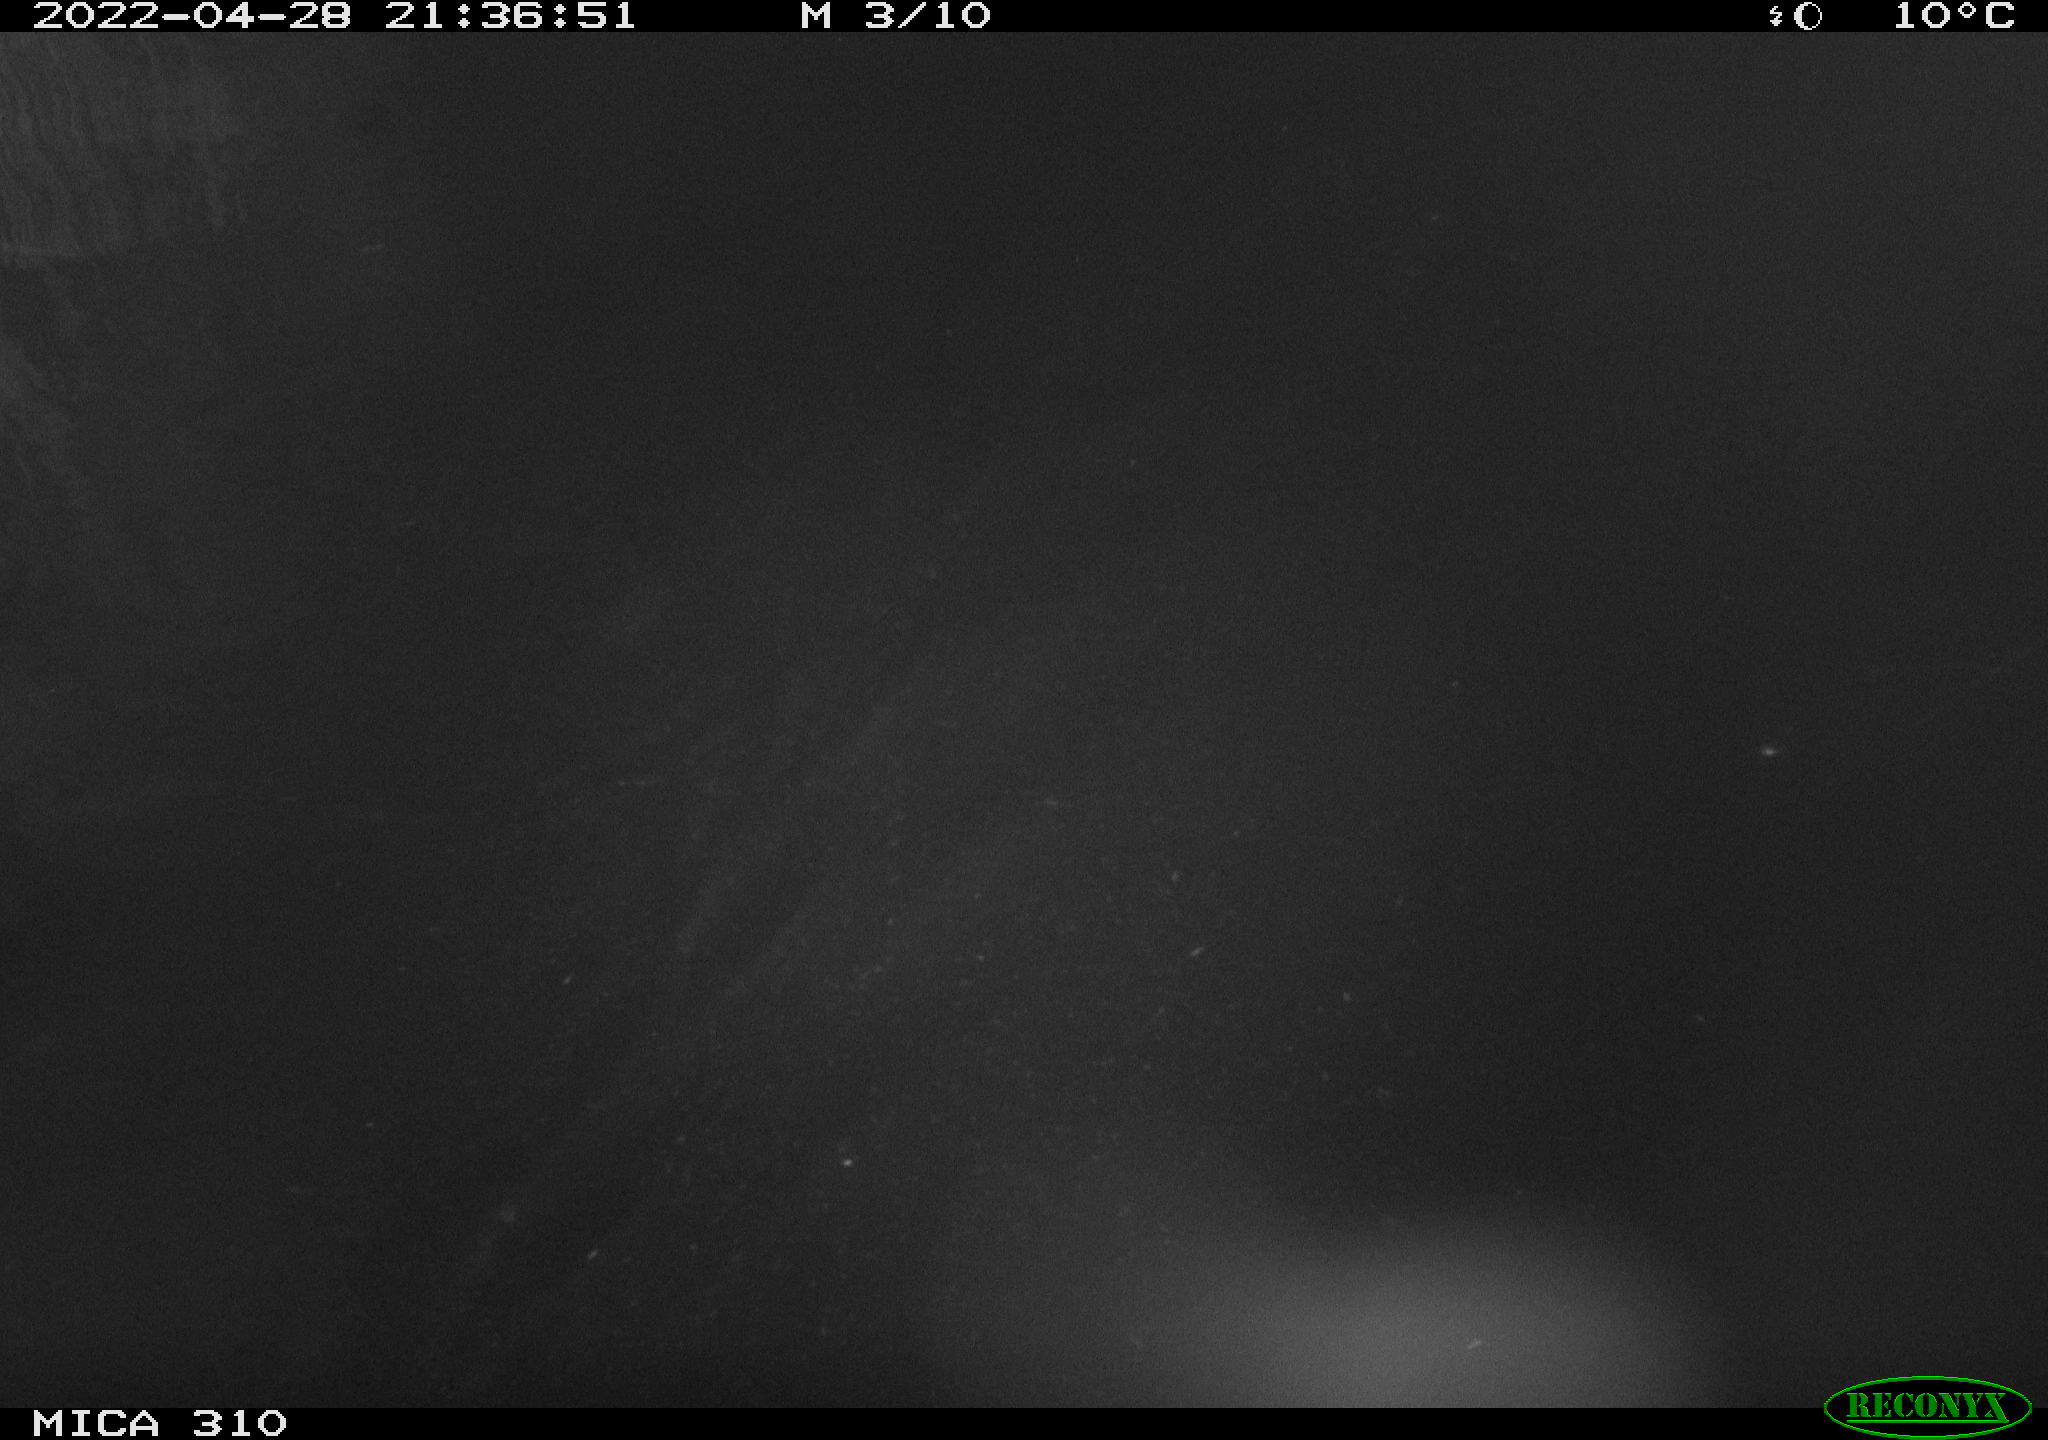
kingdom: Animalia
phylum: Chordata
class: Mammalia
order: Rodentia
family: Cricetidae
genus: Ondatra
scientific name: Ondatra zibethicus
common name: Muskrat
